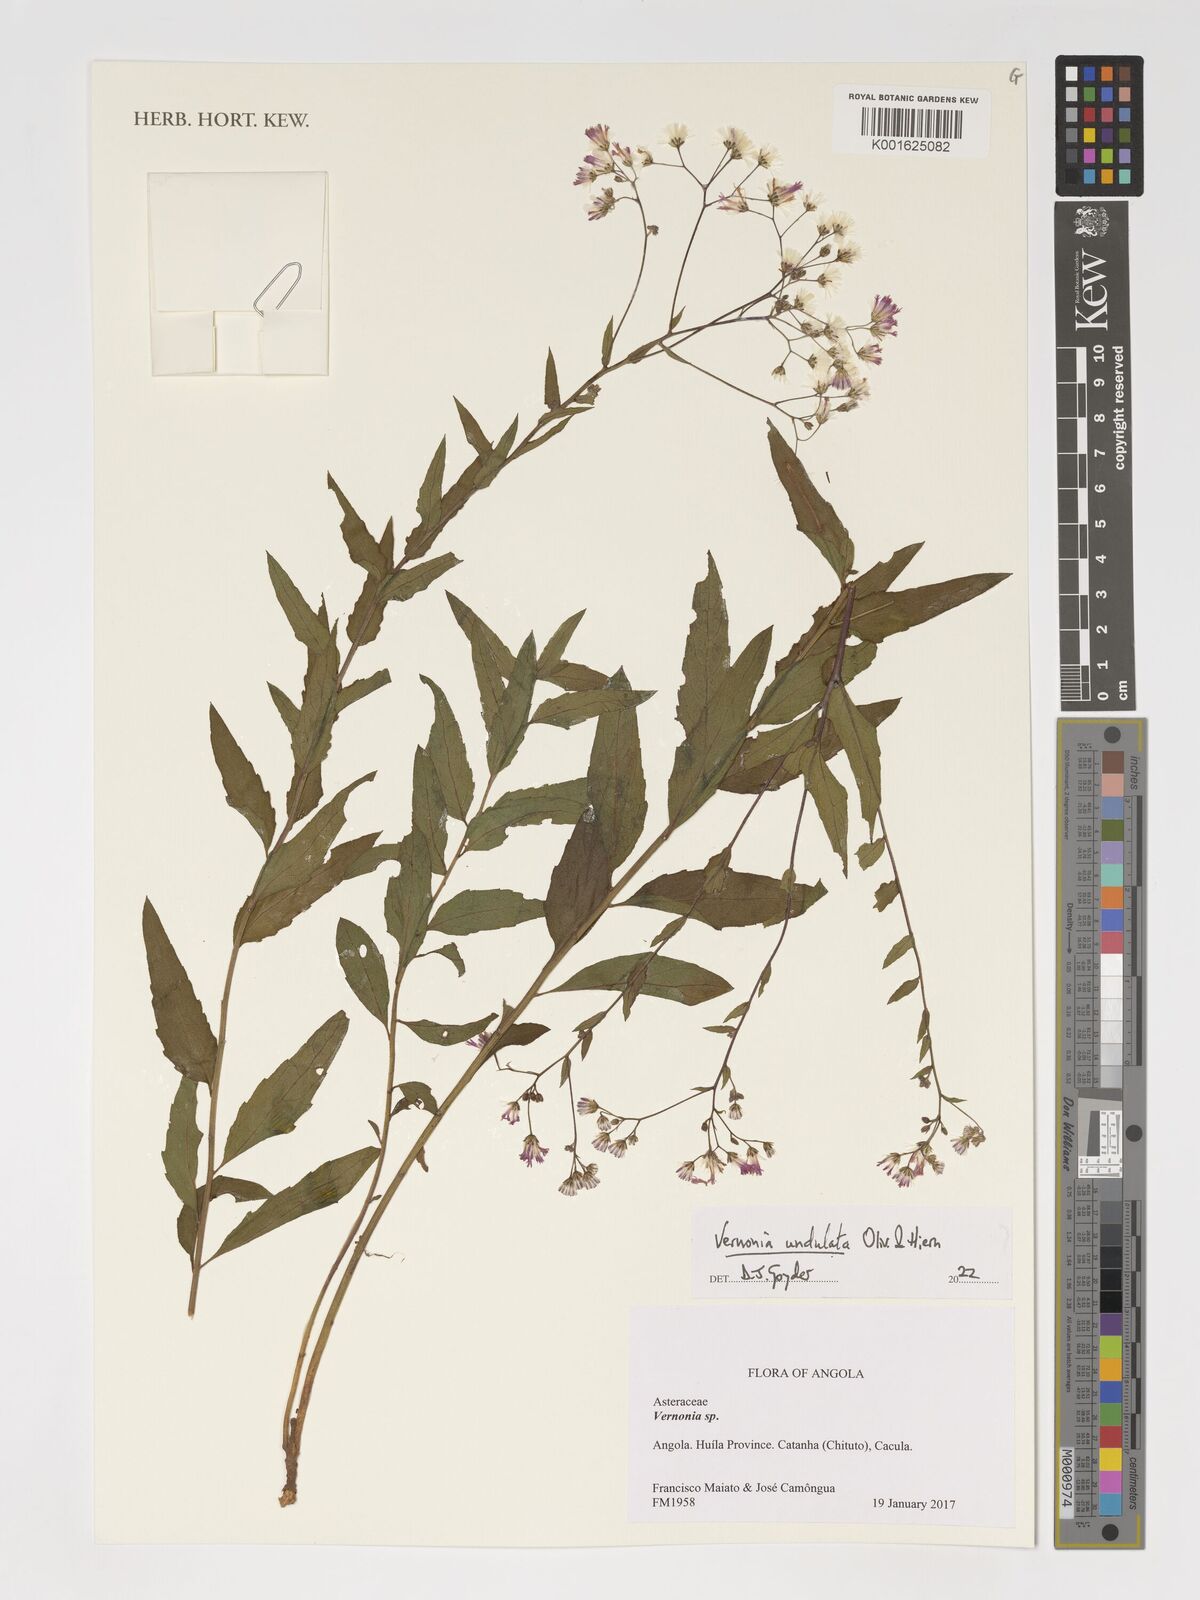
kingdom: Plantae
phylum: Tracheophyta
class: Magnoliopsida
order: Asterales
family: Asteraceae
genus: Vernonia
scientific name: Vernonia golungensis
